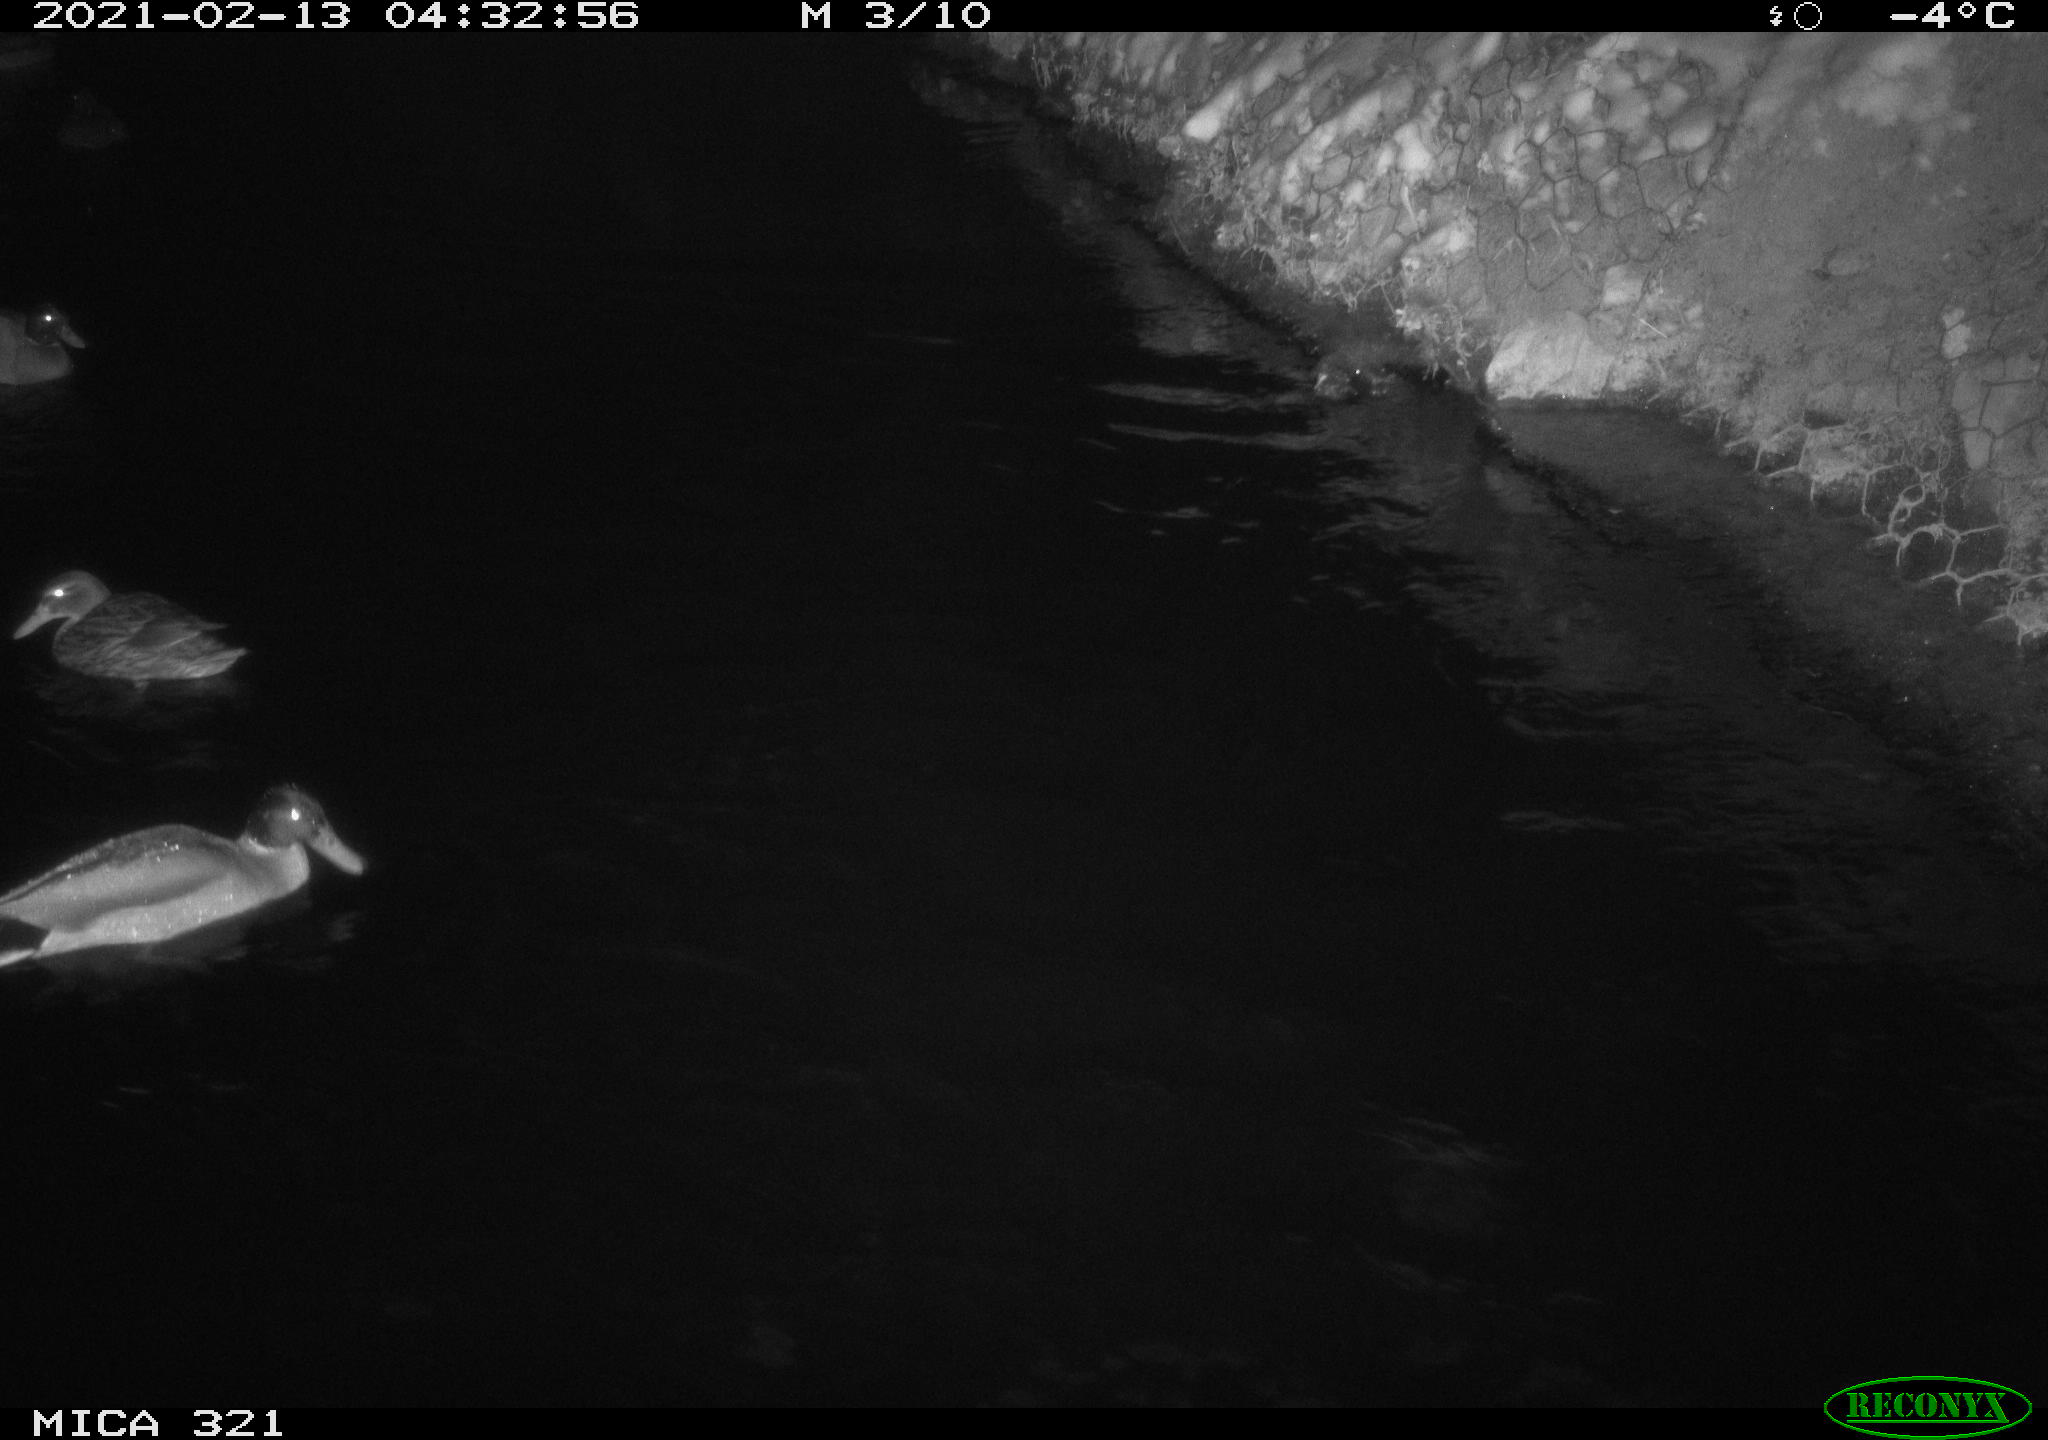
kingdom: Animalia
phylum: Chordata
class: Aves
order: Anseriformes
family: Anatidae
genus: Anas
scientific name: Anas platyrhynchos
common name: Mallard
